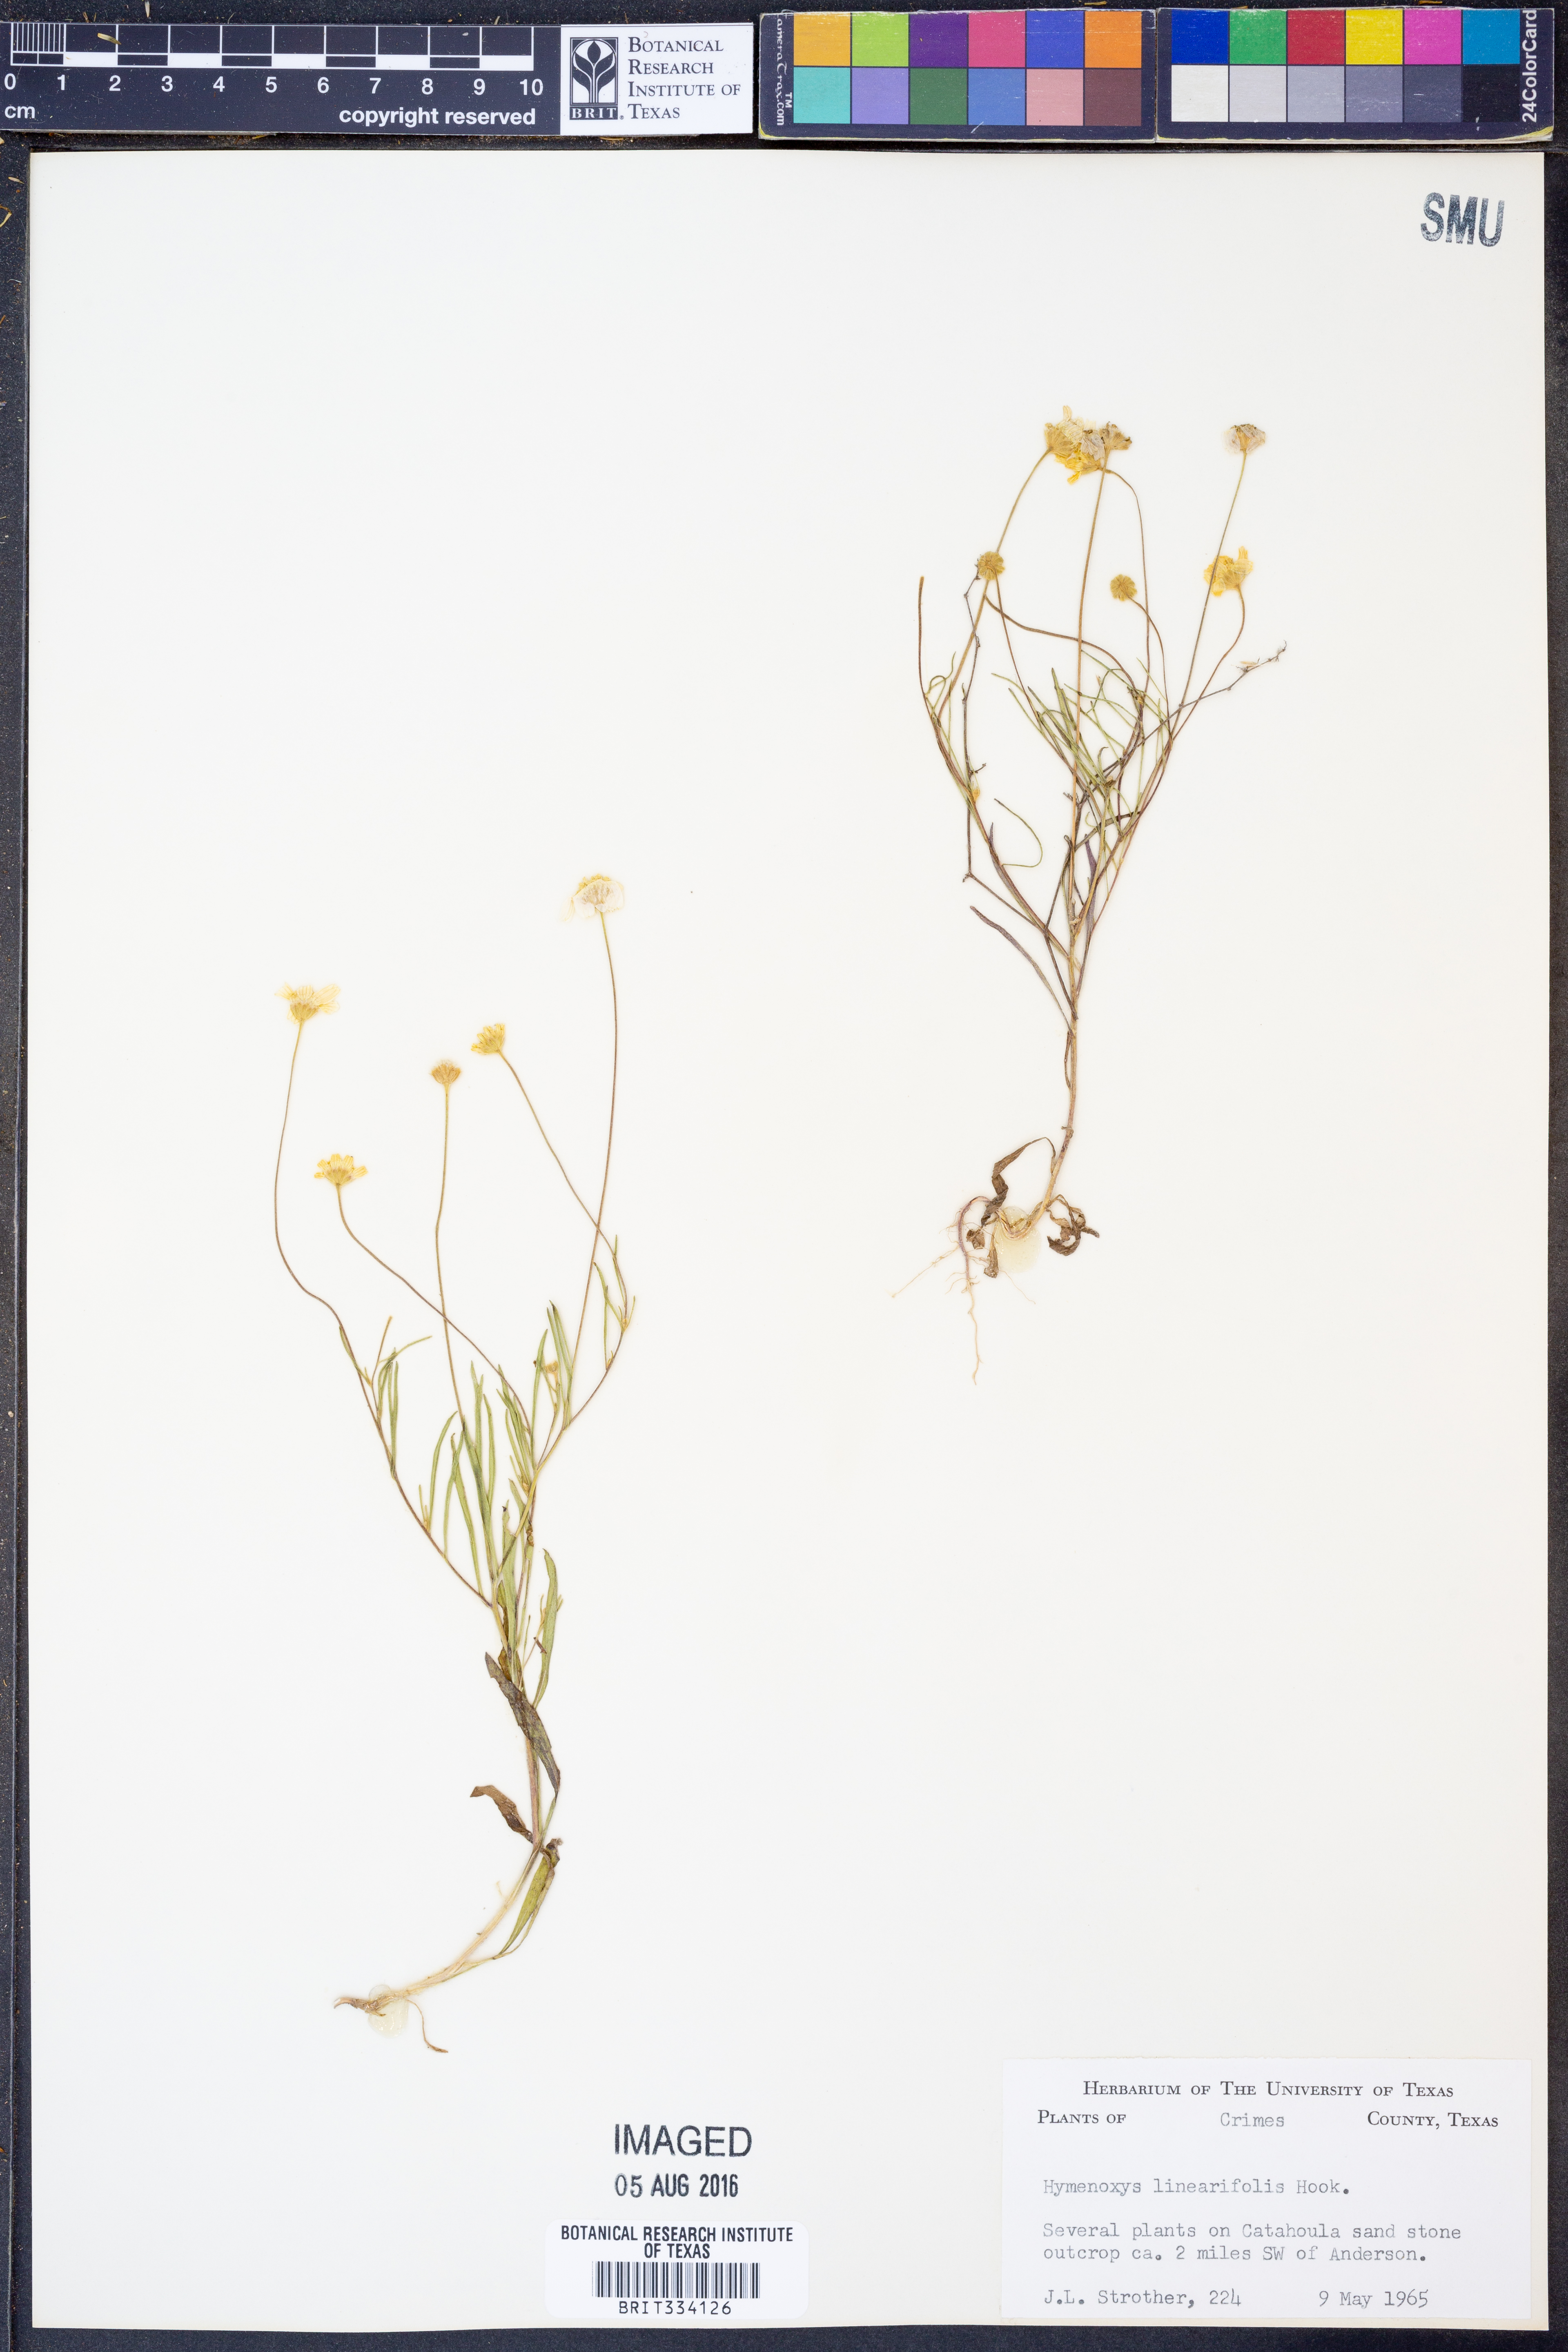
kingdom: Plantae
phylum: Tracheophyta
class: Magnoliopsida
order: Asterales
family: Asteraceae
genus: Tetraneuris
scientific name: Tetraneuris linearifolia
